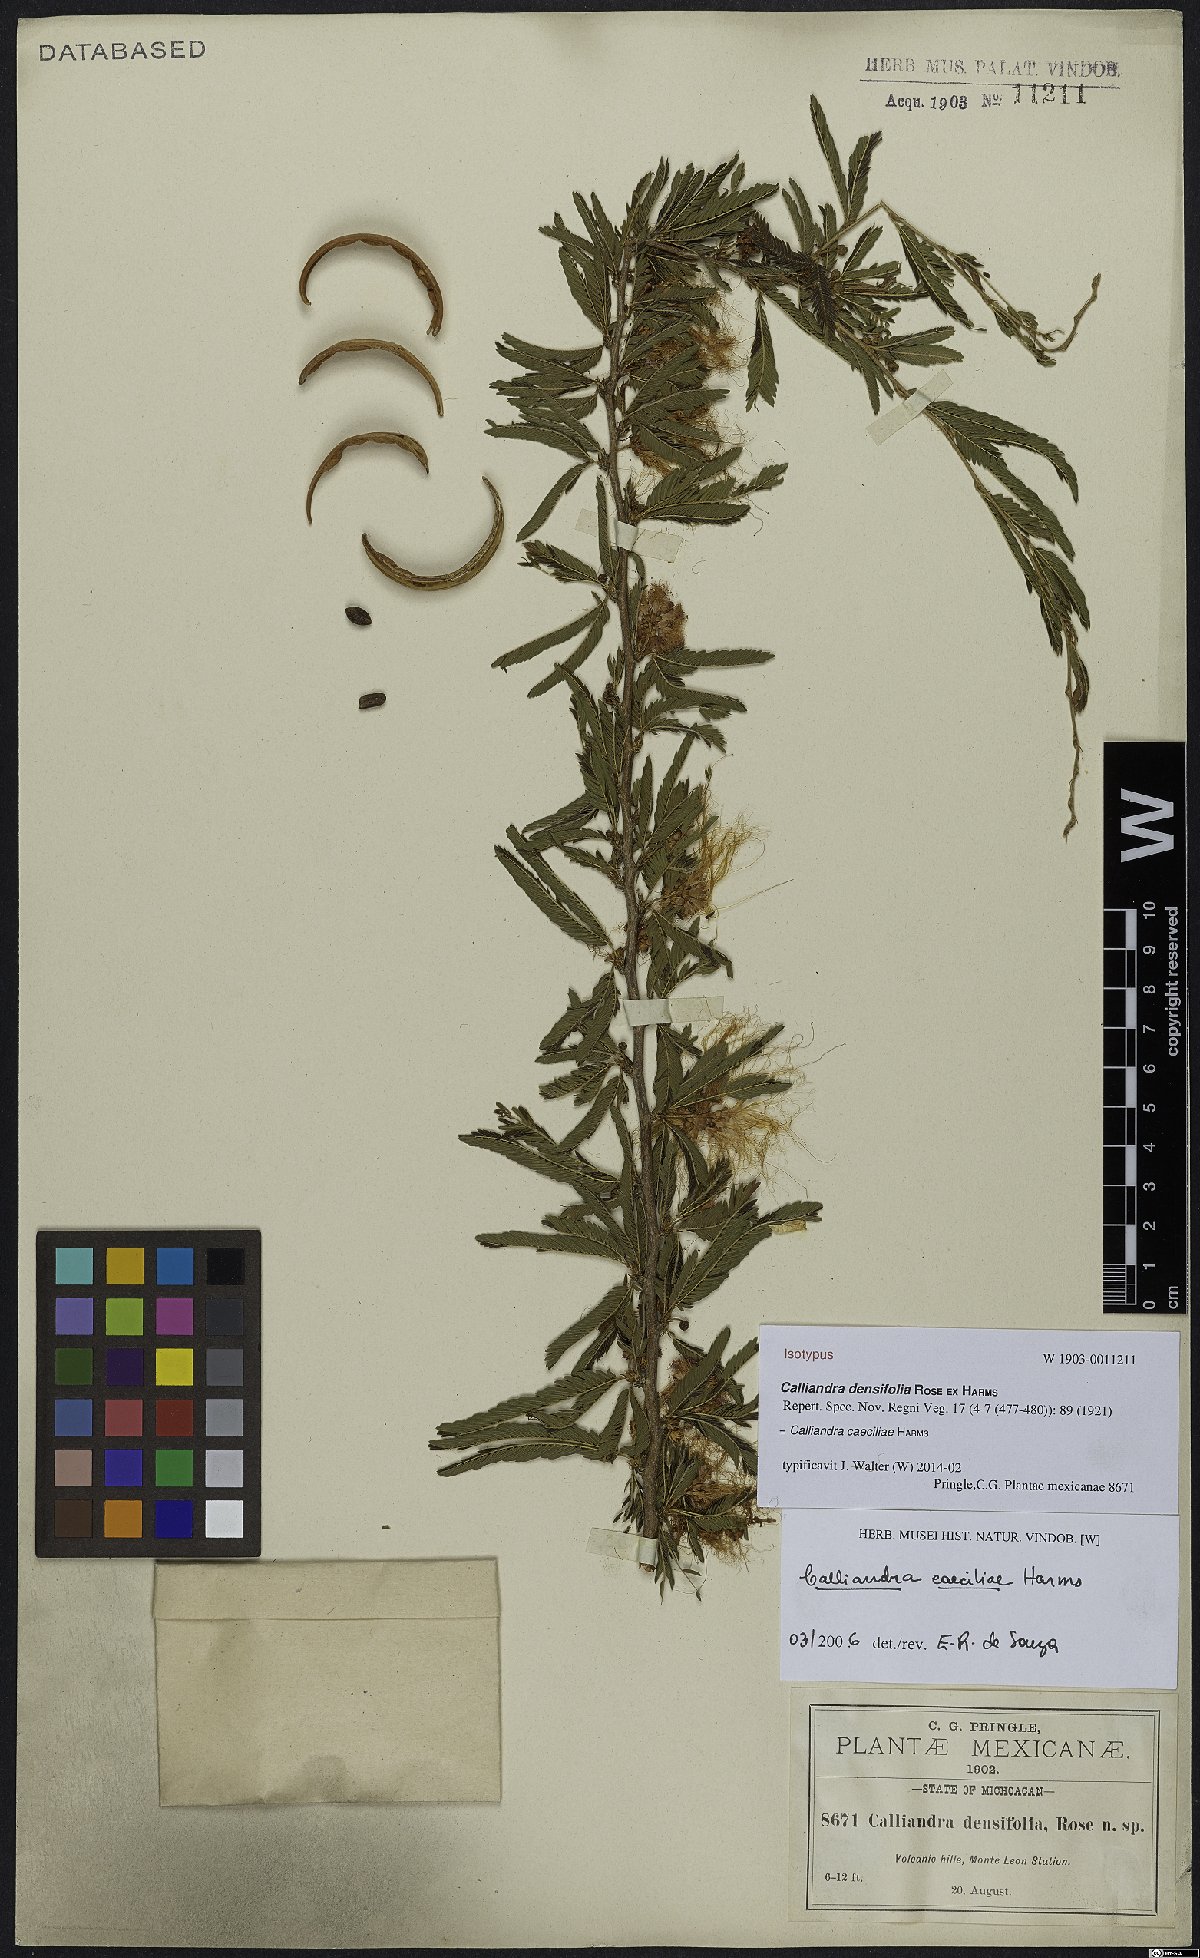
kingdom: Plantae
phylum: Tracheophyta
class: Magnoliopsida
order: Fabales
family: Fabaceae
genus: Calliandra
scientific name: Calliandra caeciliae
